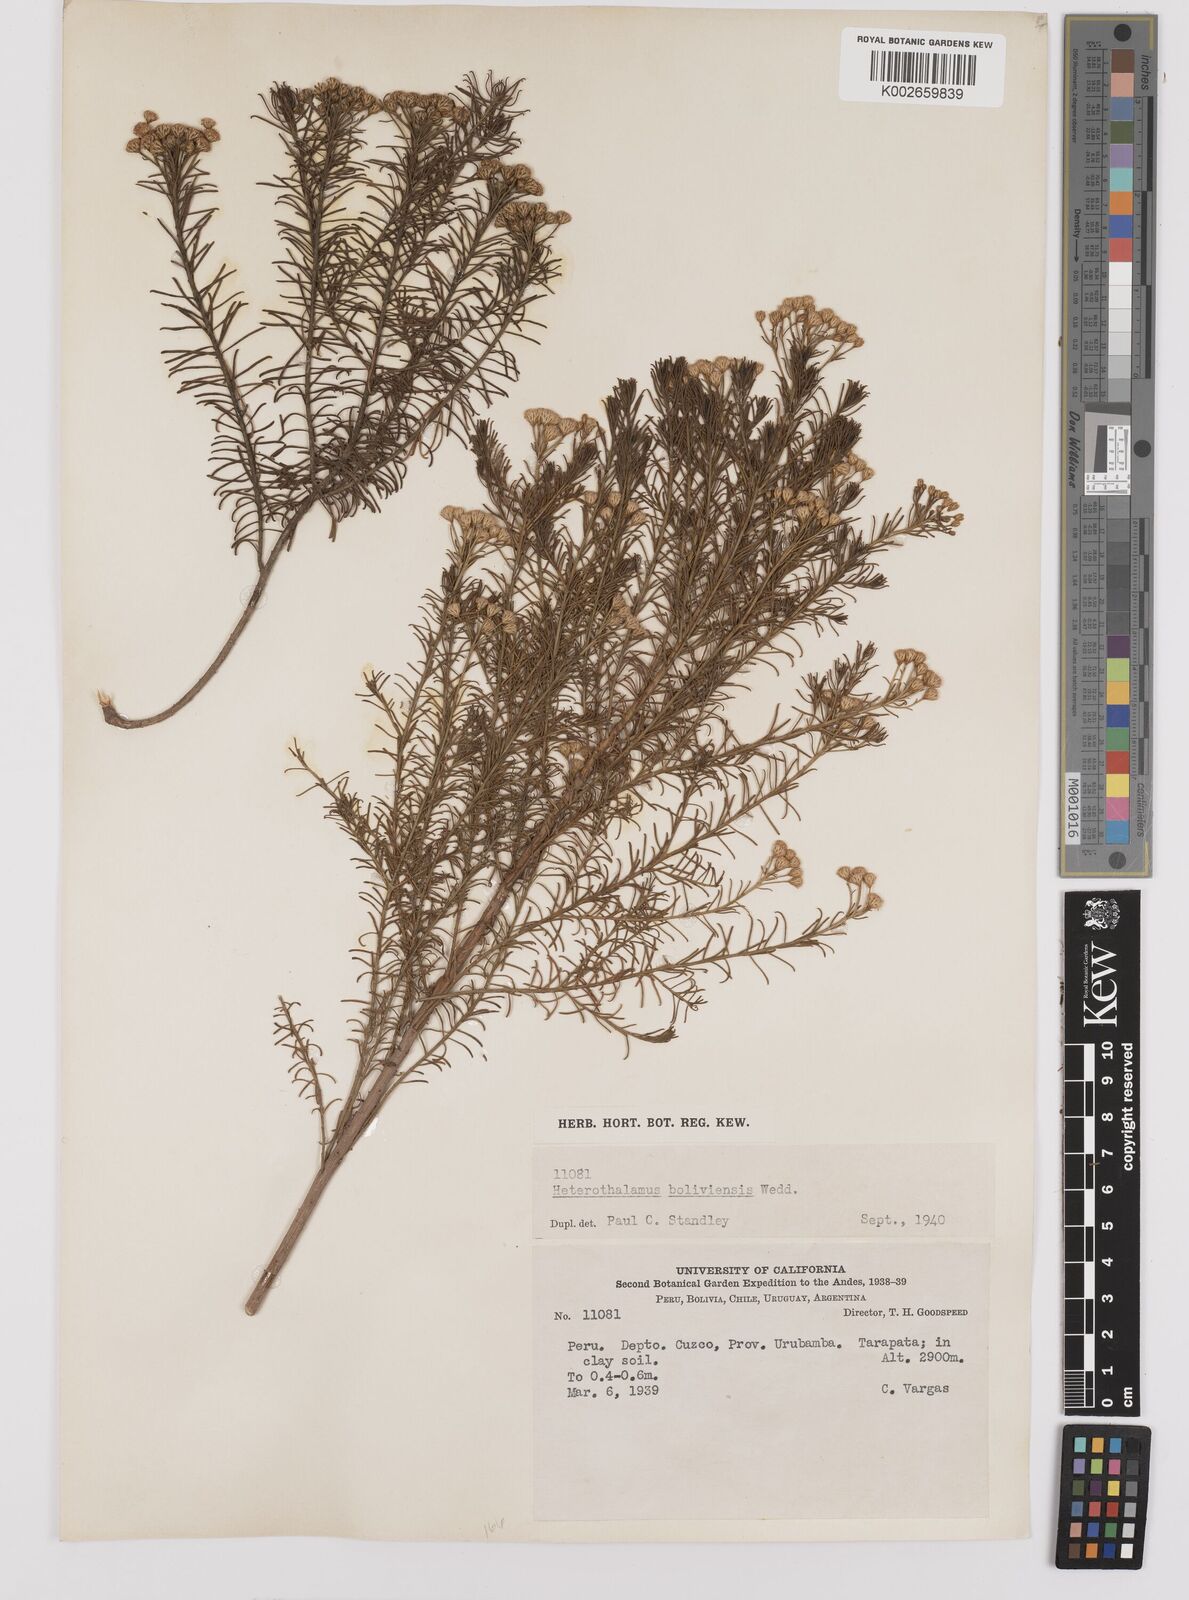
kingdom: Plantae
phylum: Tracheophyta
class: Magnoliopsida
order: Asterales
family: Asteraceae
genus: Baccharis
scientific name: Baccharis bolivensis
